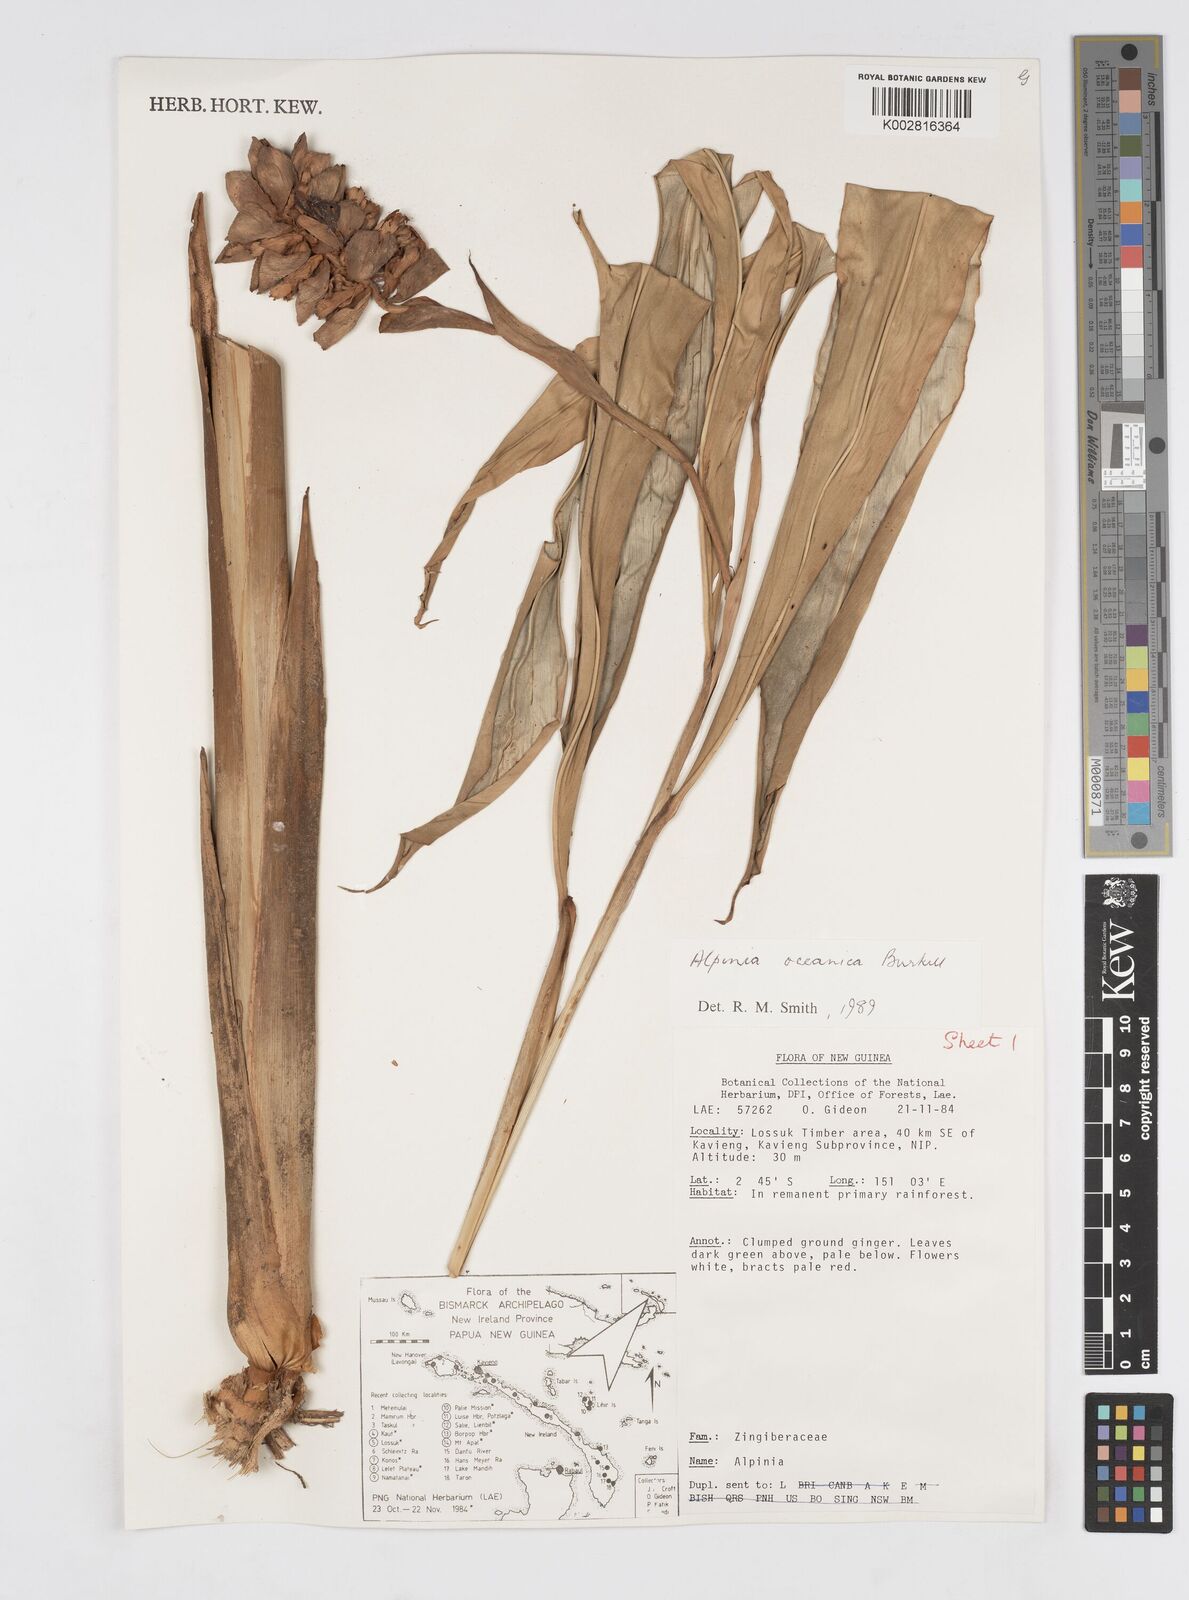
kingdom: Plantae
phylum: Tracheophyta
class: Liliopsida
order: Zingiberales
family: Zingiberaceae
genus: Alpinia
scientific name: Alpinia oceanica
